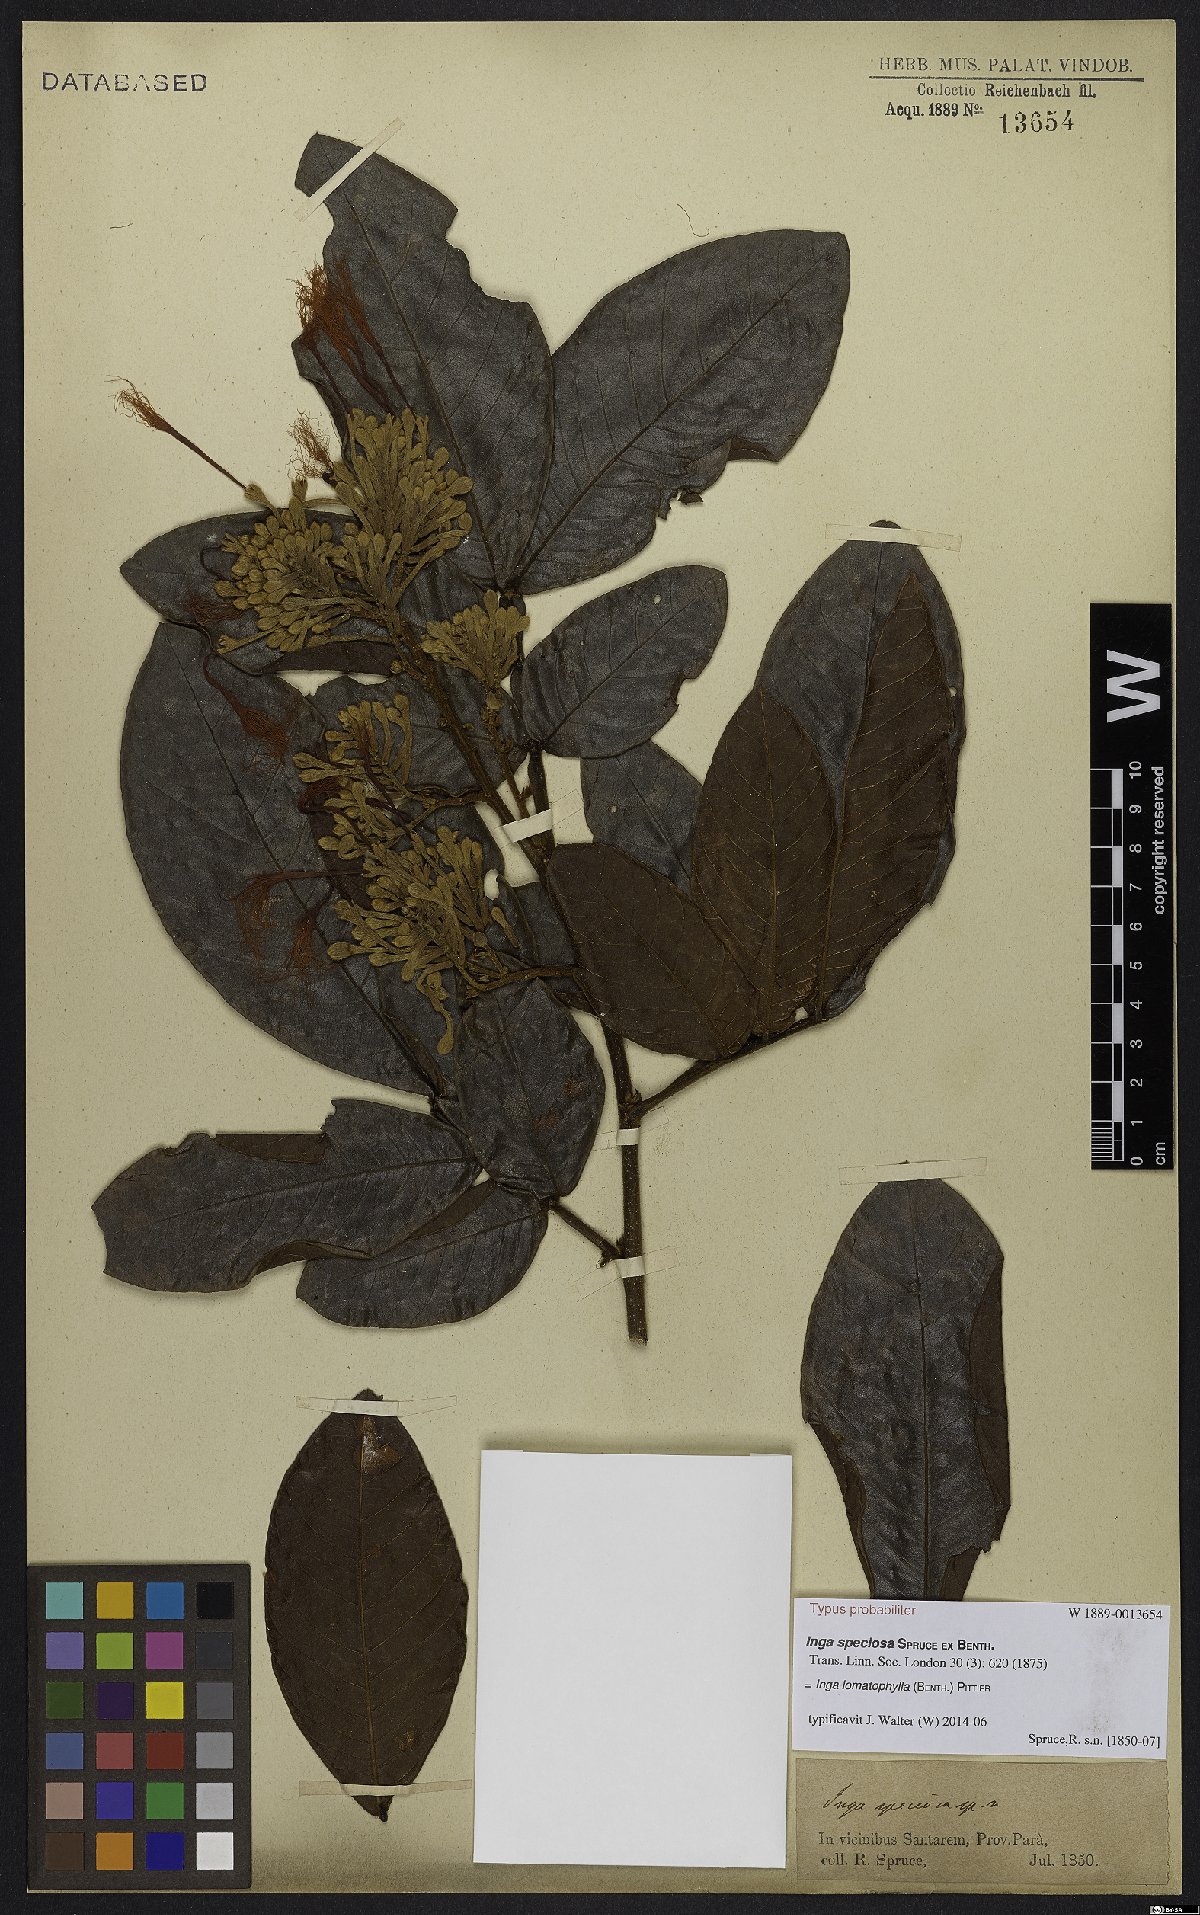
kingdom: Plantae
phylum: Tracheophyta
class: Magnoliopsida
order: Fabales
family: Fabaceae
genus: Inga
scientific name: Inga lomatophylla
